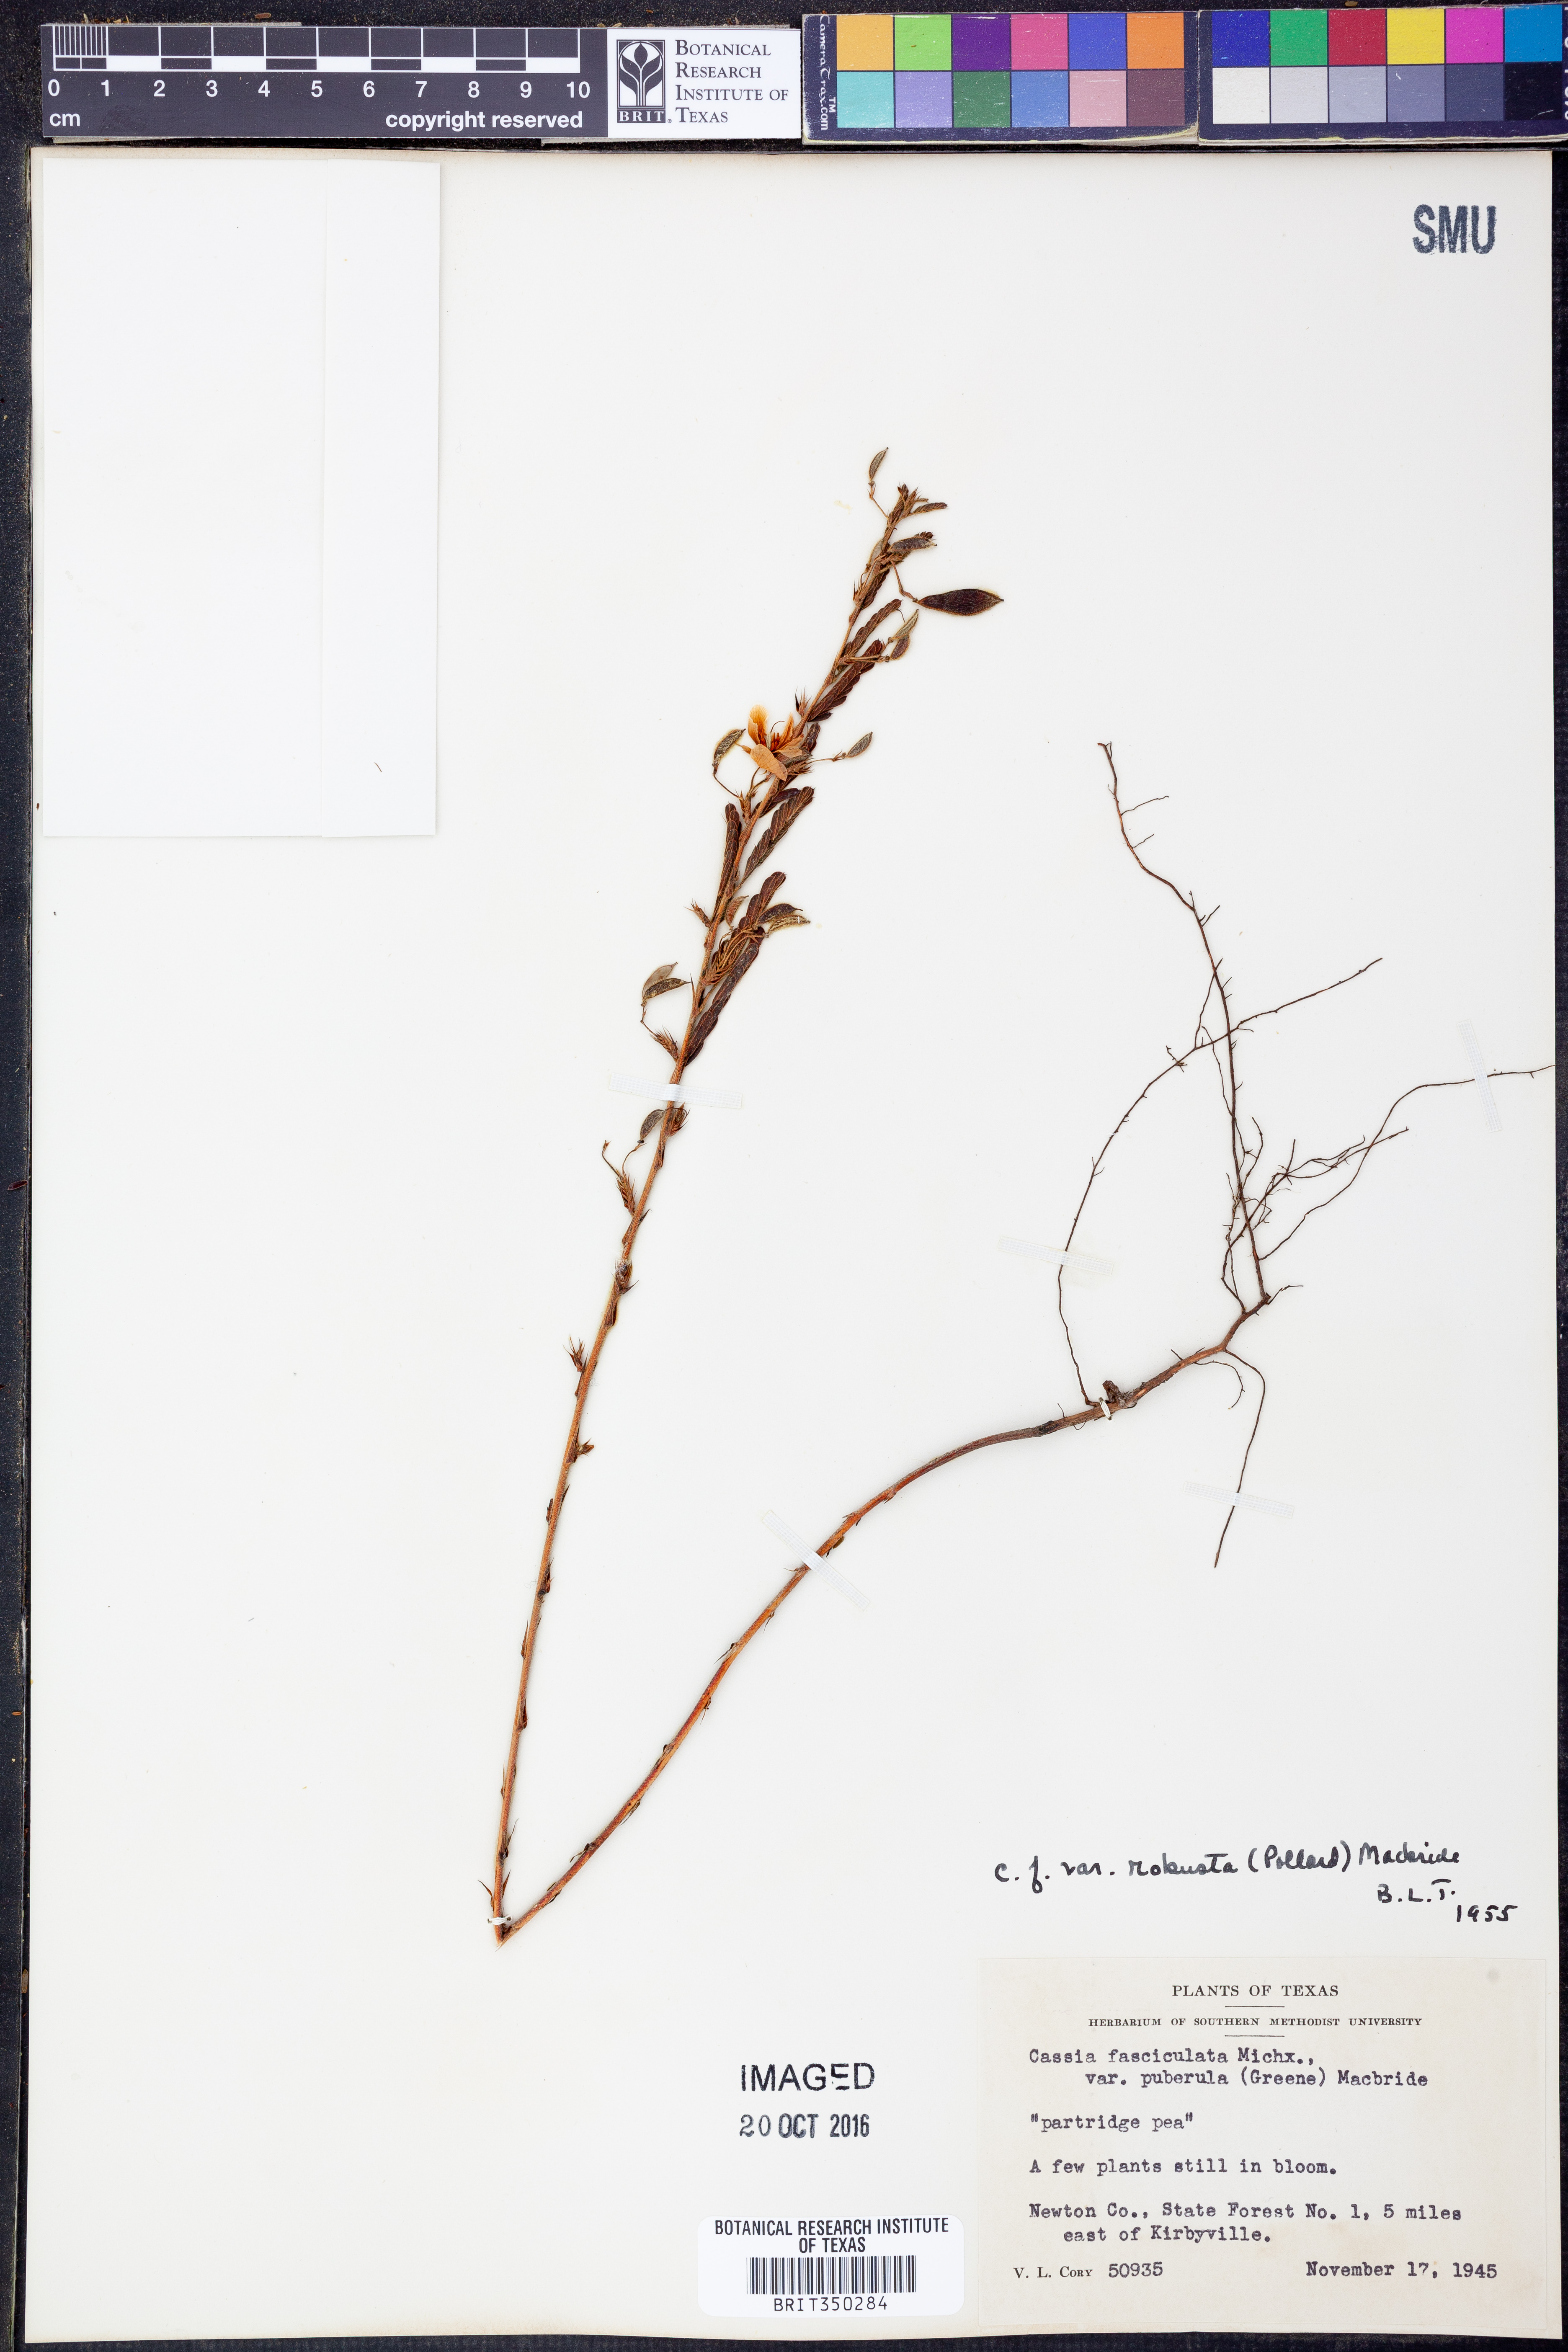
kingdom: Plantae
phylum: Tracheophyta
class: Magnoliopsida
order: Fabales
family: Fabaceae
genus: Chamaecrista
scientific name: Chamaecrista fasciculata
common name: Golden cassia
